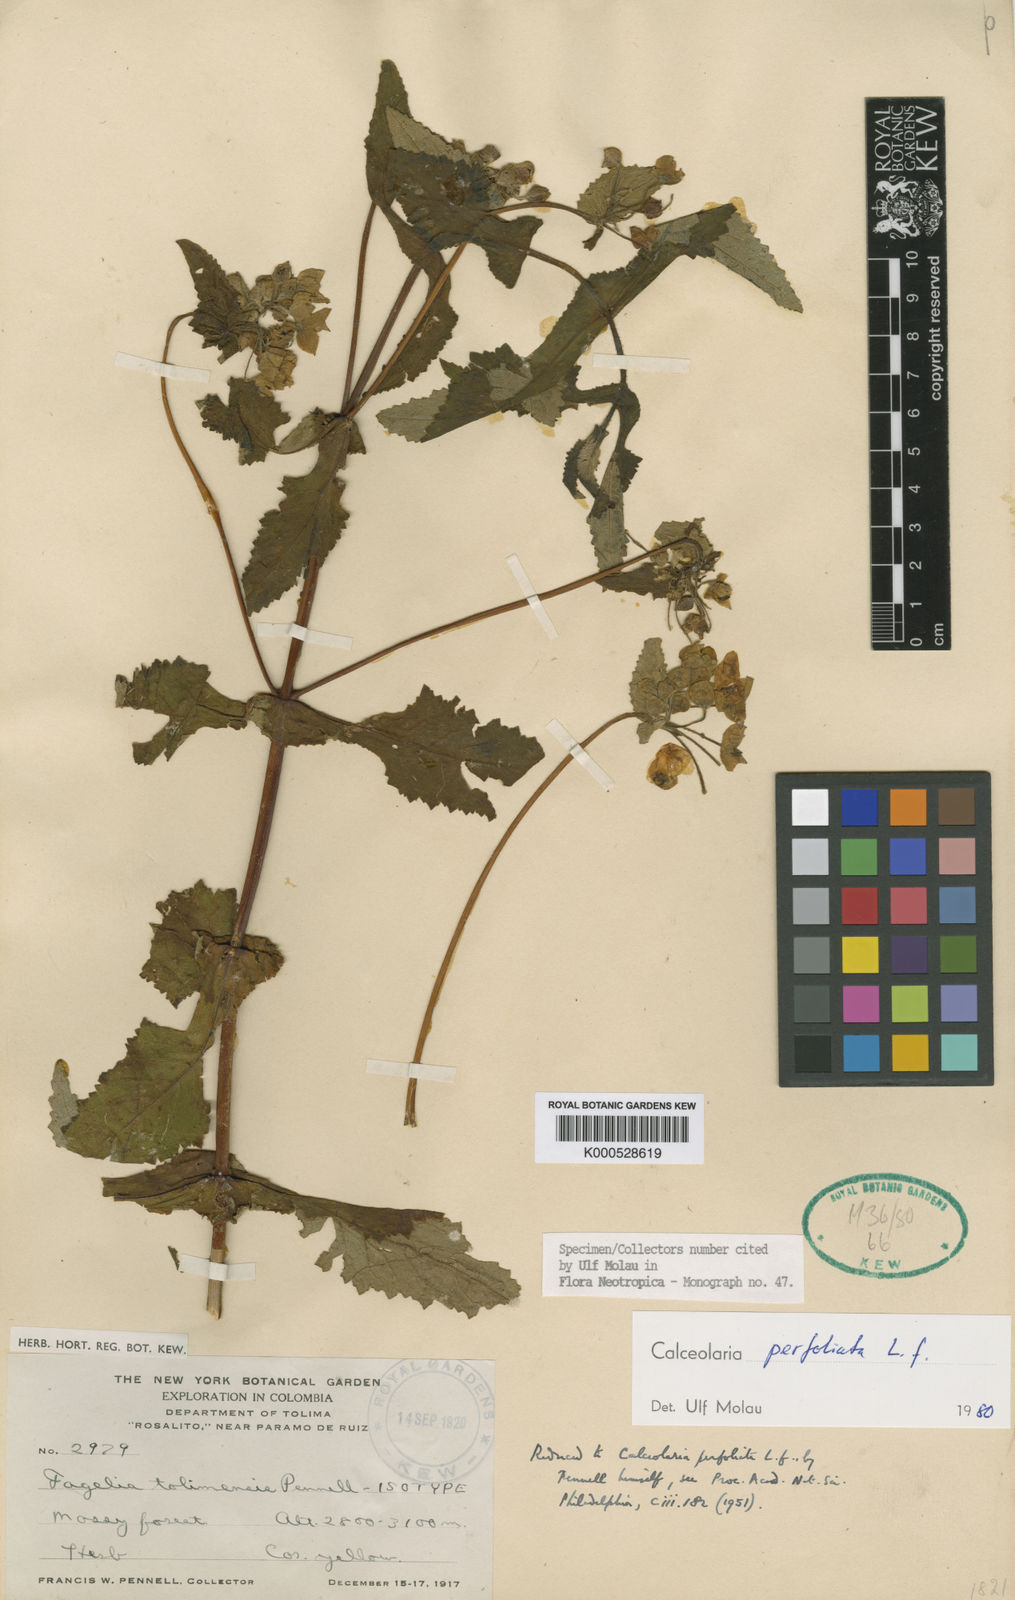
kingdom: Plantae
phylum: Tracheophyta
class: Magnoliopsida
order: Lamiales
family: Calceolariaceae
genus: Calceolaria
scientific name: Calceolaria perfoliata
